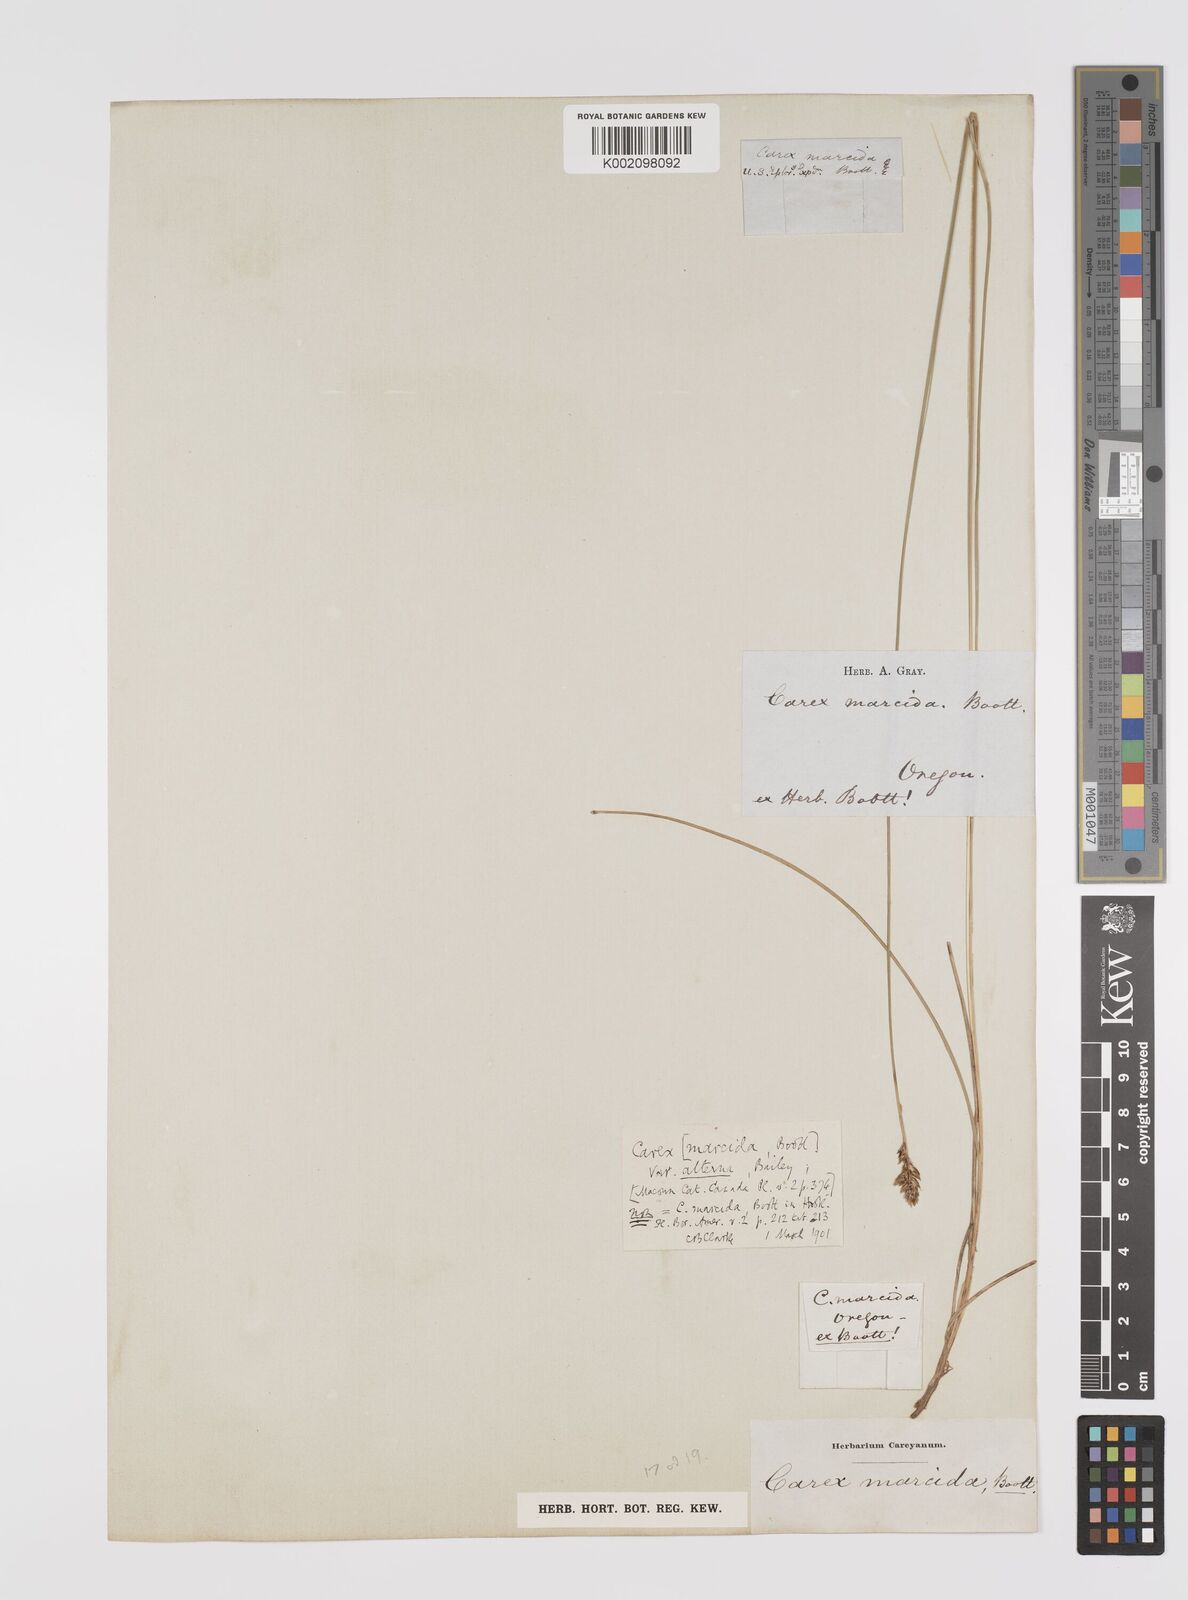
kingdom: Plantae
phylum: Tracheophyta
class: Liliopsida
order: Poales
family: Cyperaceae
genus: Carex
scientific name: Carex praegracilis
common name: Black creeper sedge
